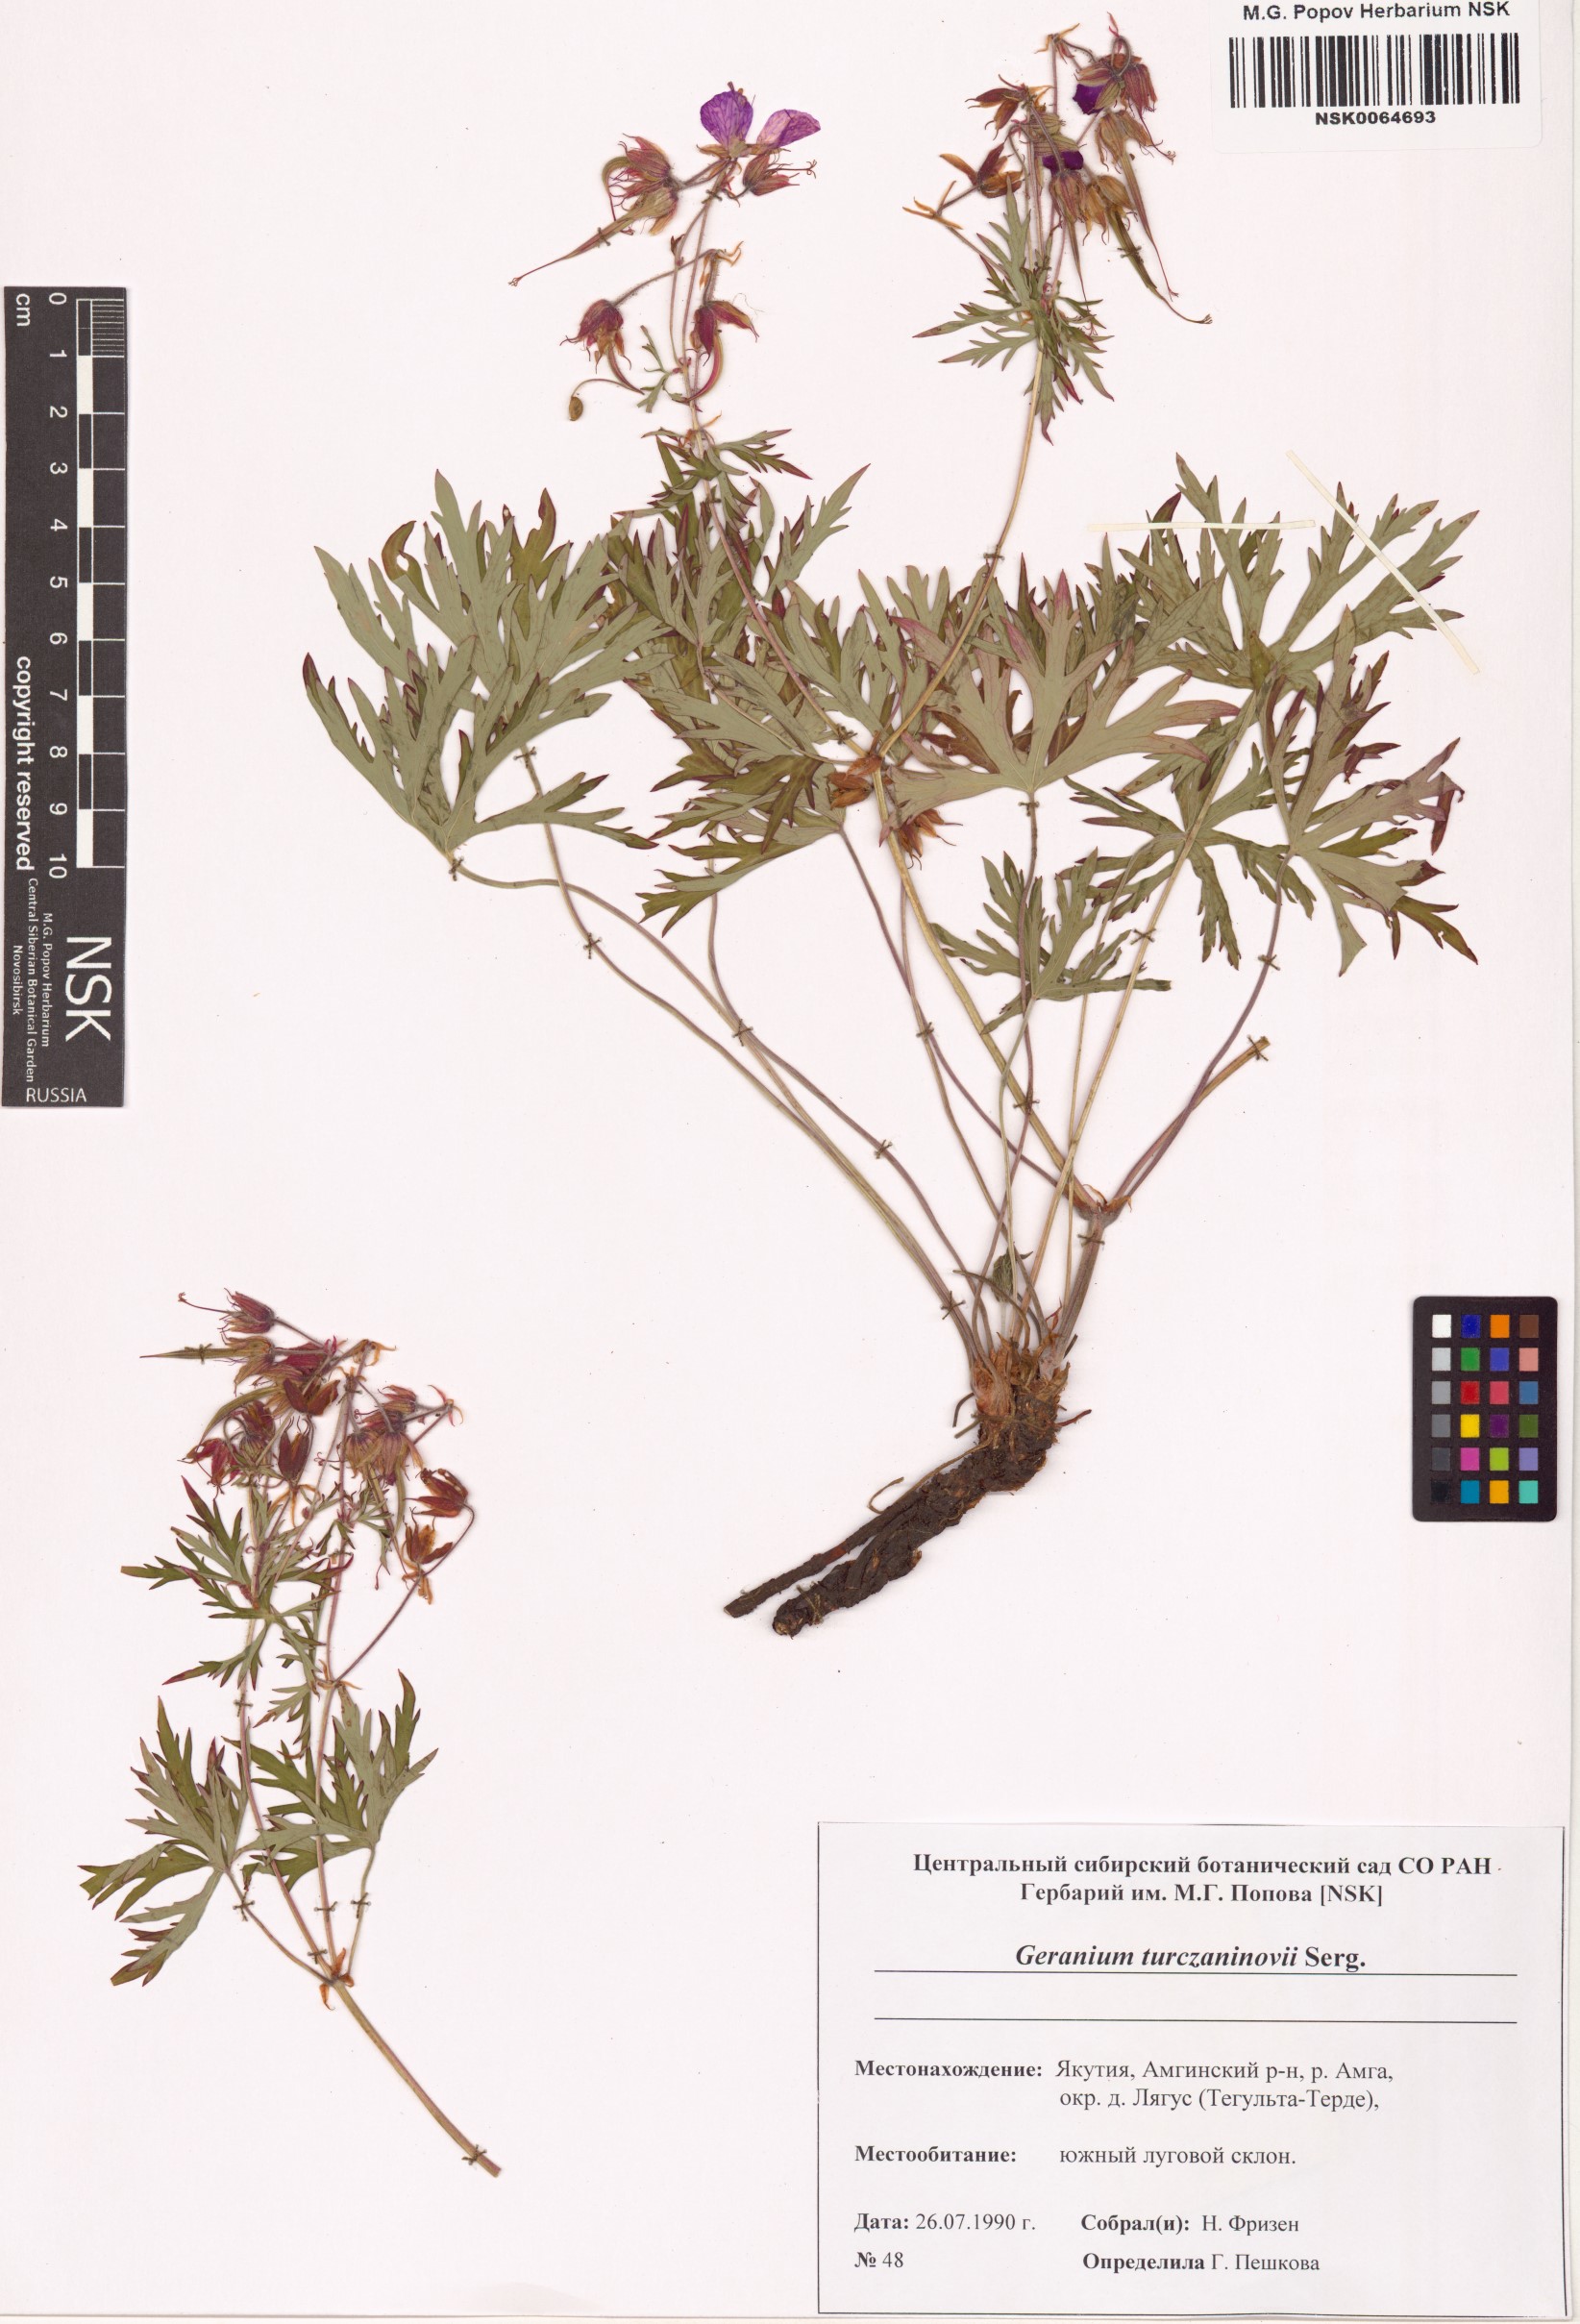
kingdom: Plantae
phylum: Tracheophyta
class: Magnoliopsida
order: Geraniales
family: Geraniaceae
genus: Geranium
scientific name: Geranium pratense
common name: Meadow crane's-bill
